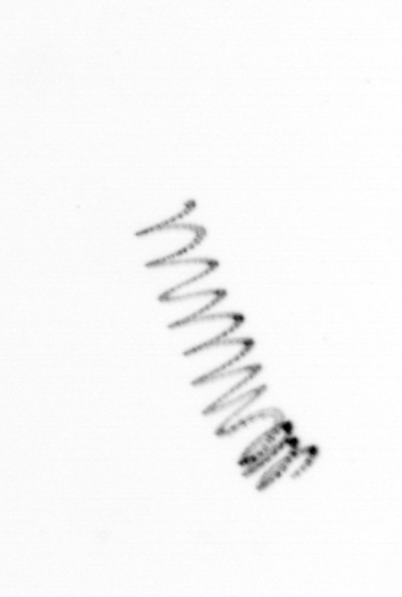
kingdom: Chromista
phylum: Ochrophyta
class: Bacillariophyceae
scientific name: Bacillariophyceae
